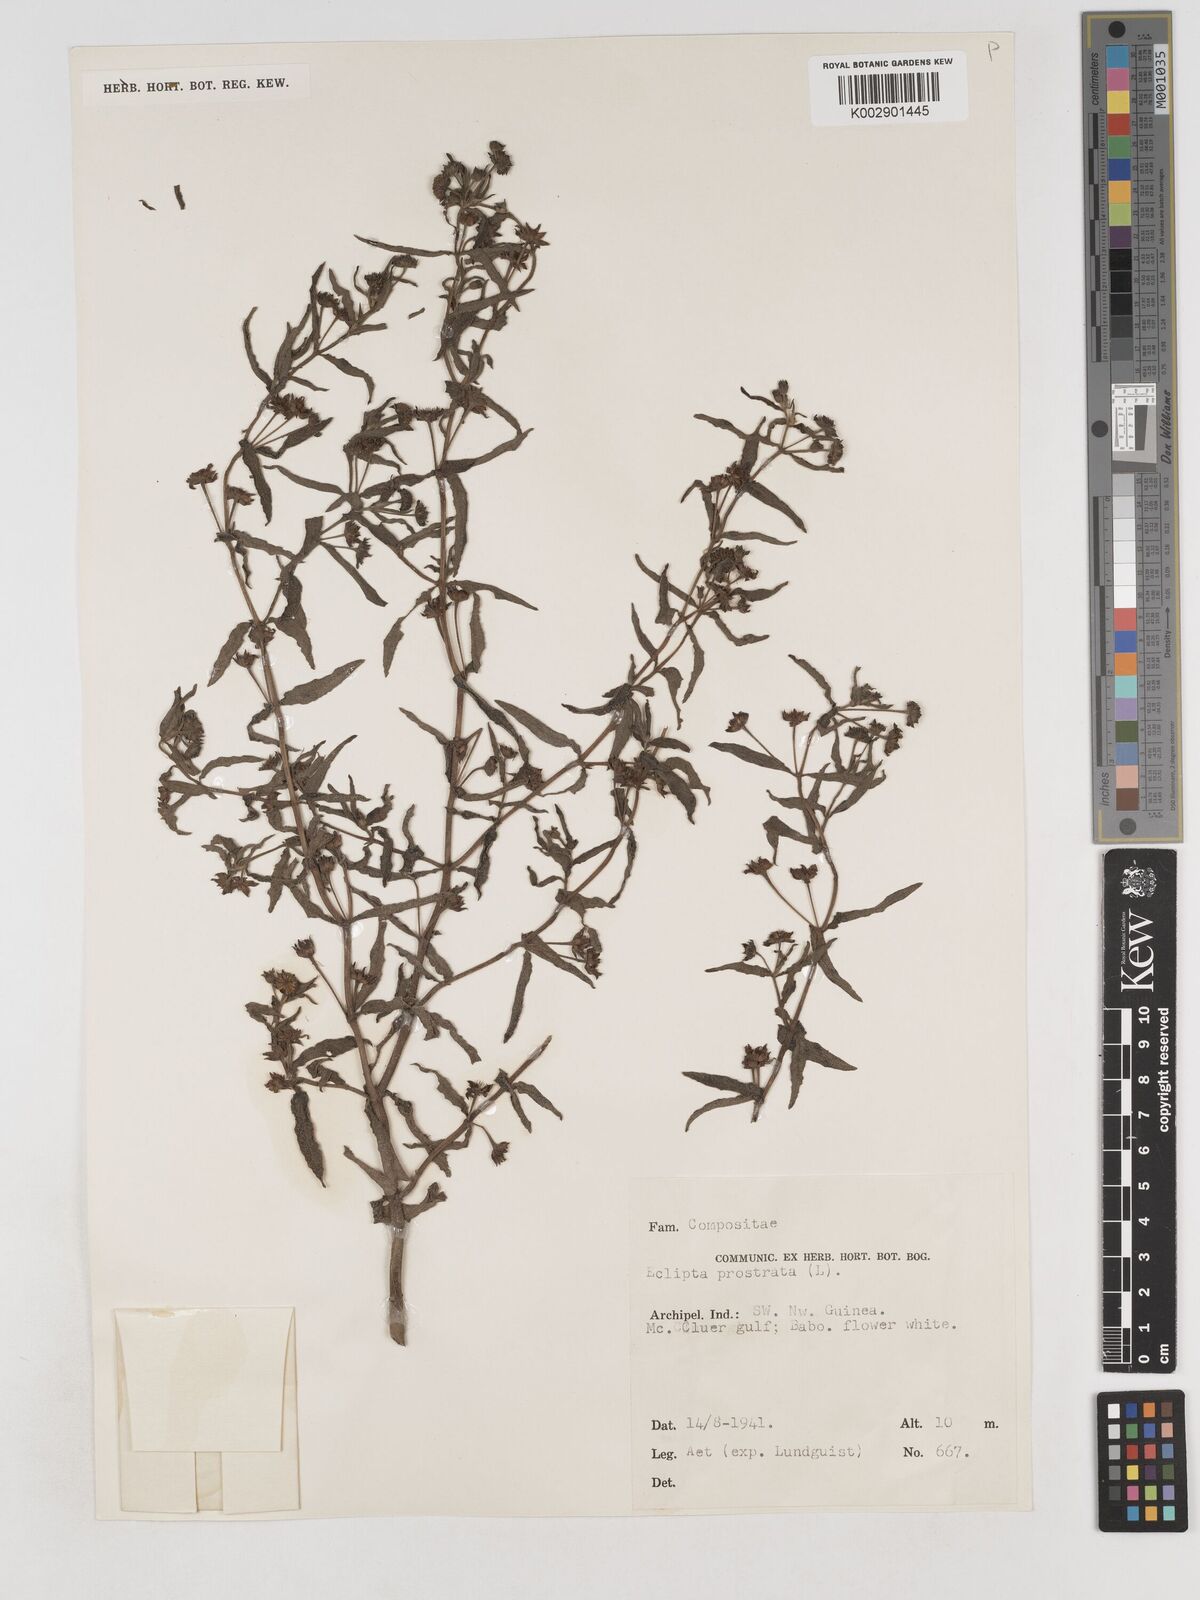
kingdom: Plantae
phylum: Tracheophyta
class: Magnoliopsida
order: Asterales
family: Asteraceae
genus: Eclipta
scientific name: Eclipta prostrata
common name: False daisy
